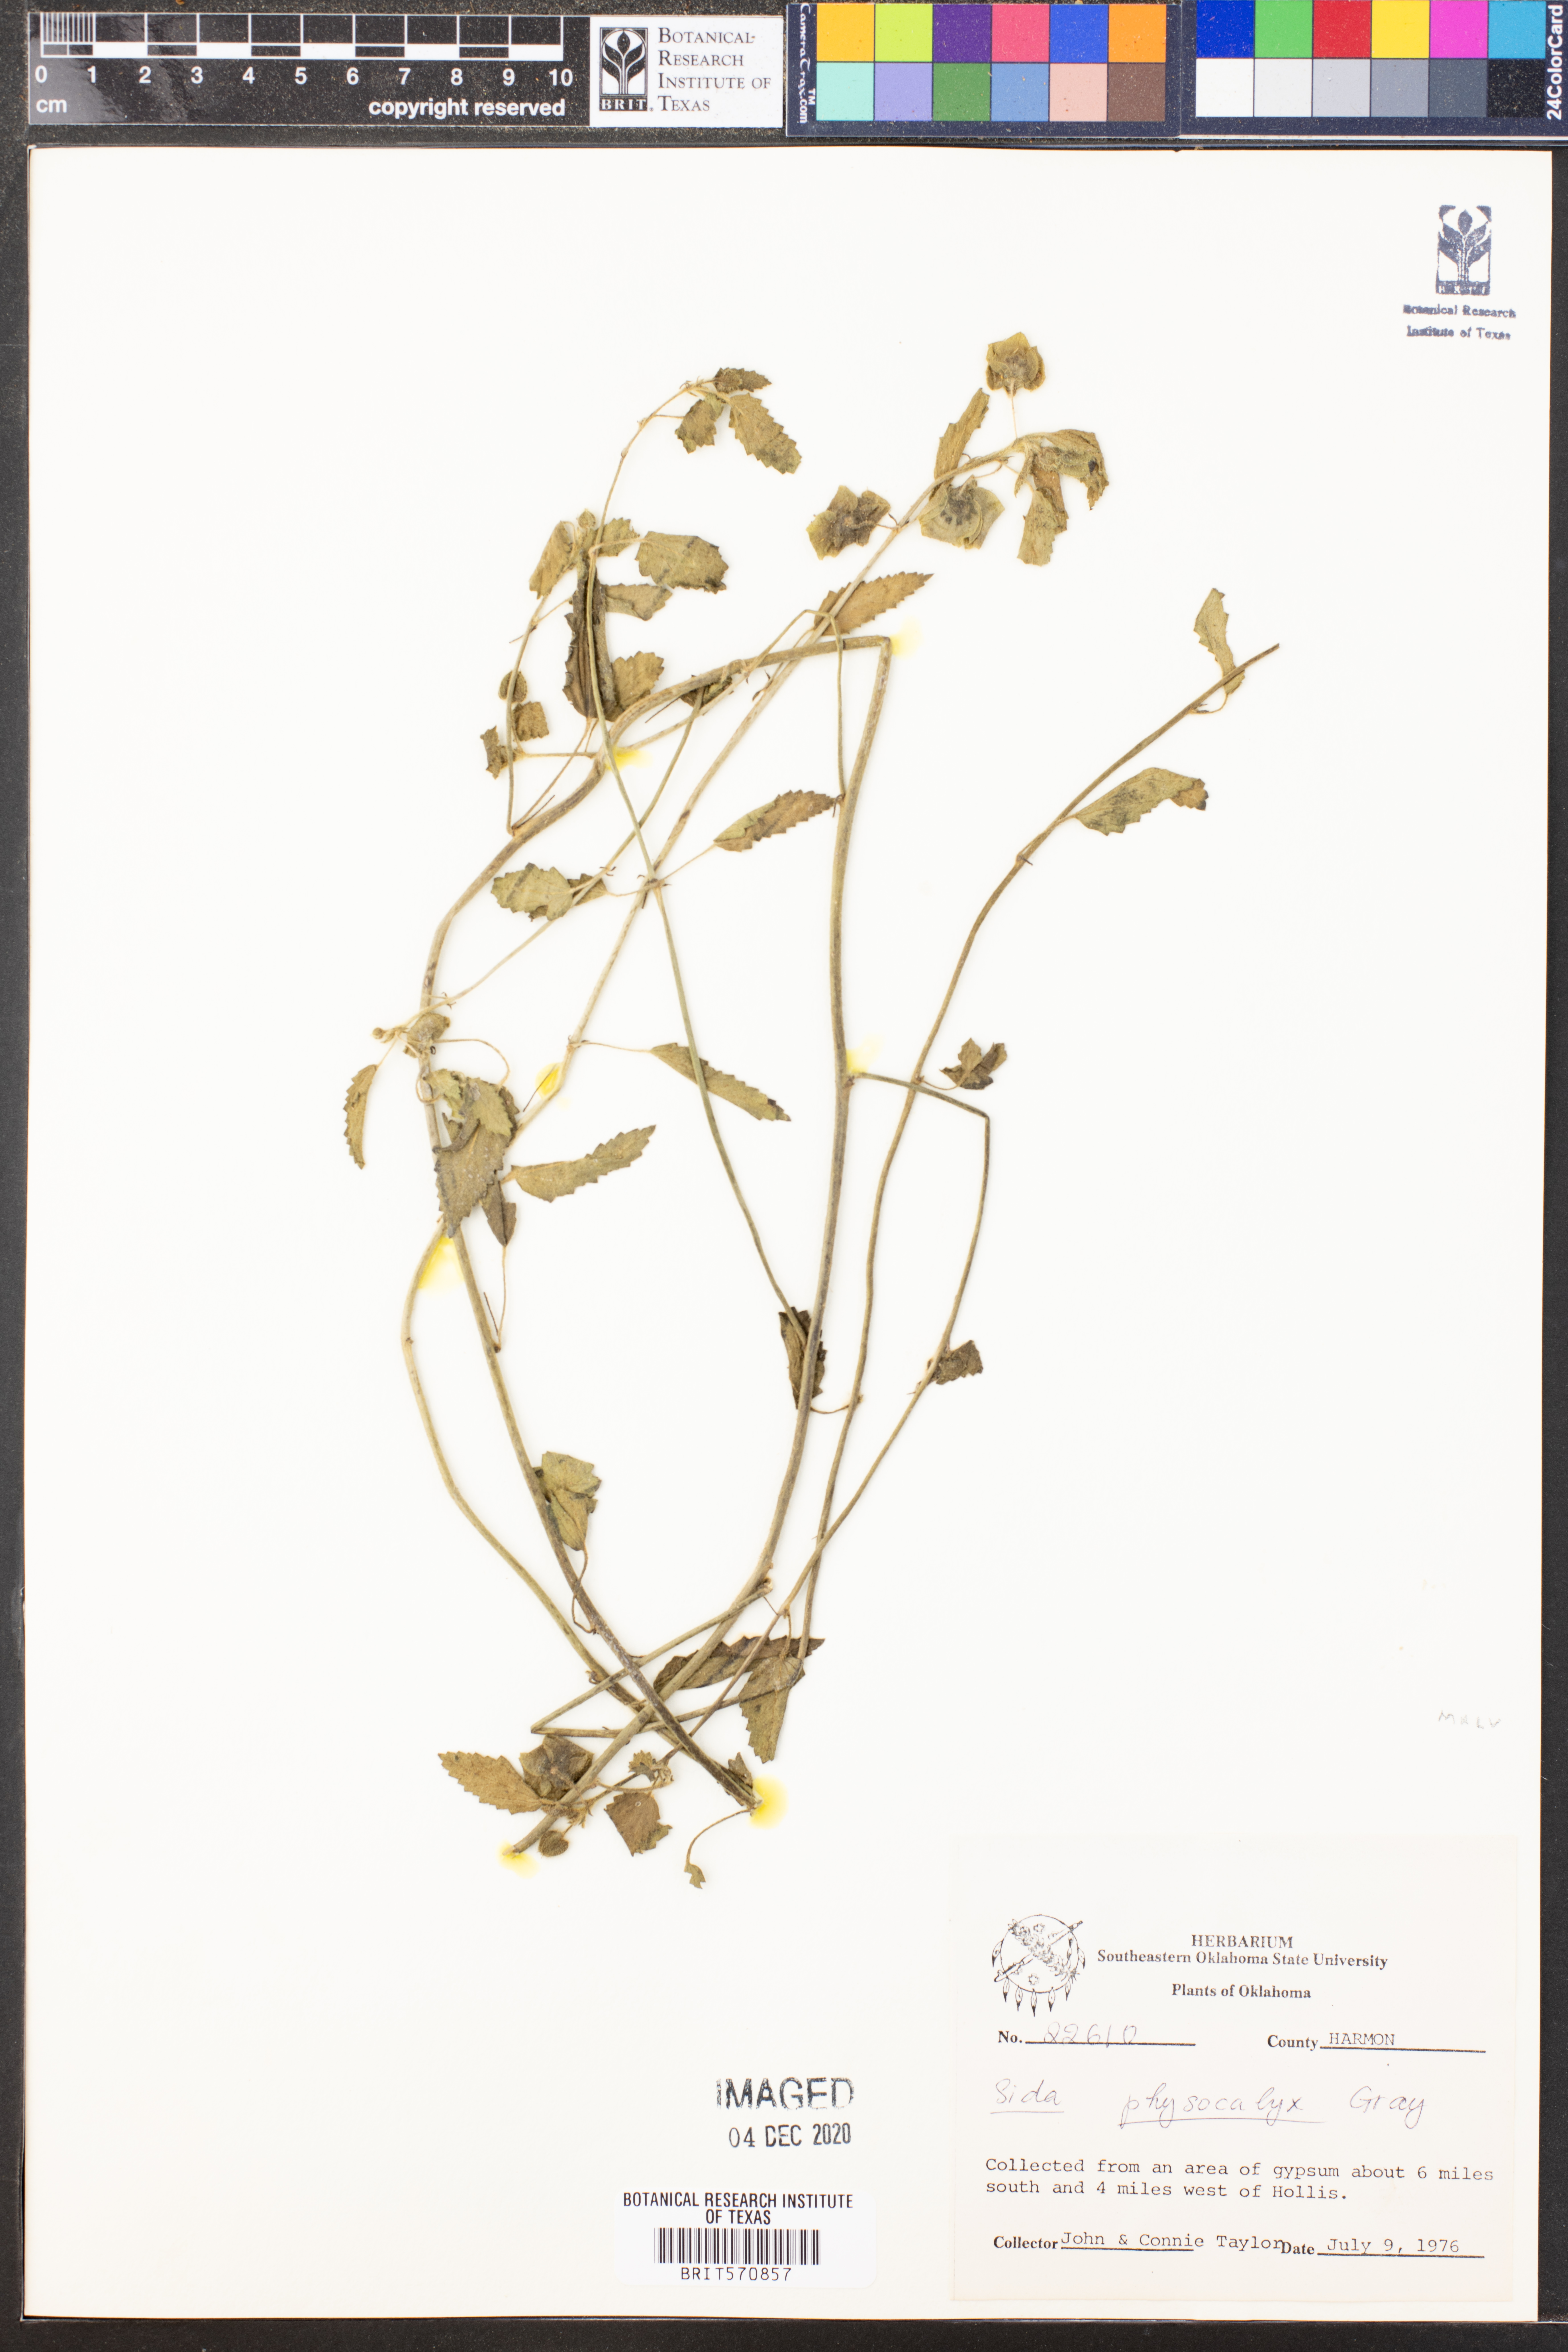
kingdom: Plantae
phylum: Tracheophyta
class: Magnoliopsida
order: Malvales
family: Malvaceae
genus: Rhynchosida
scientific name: Rhynchosida physocalyx
